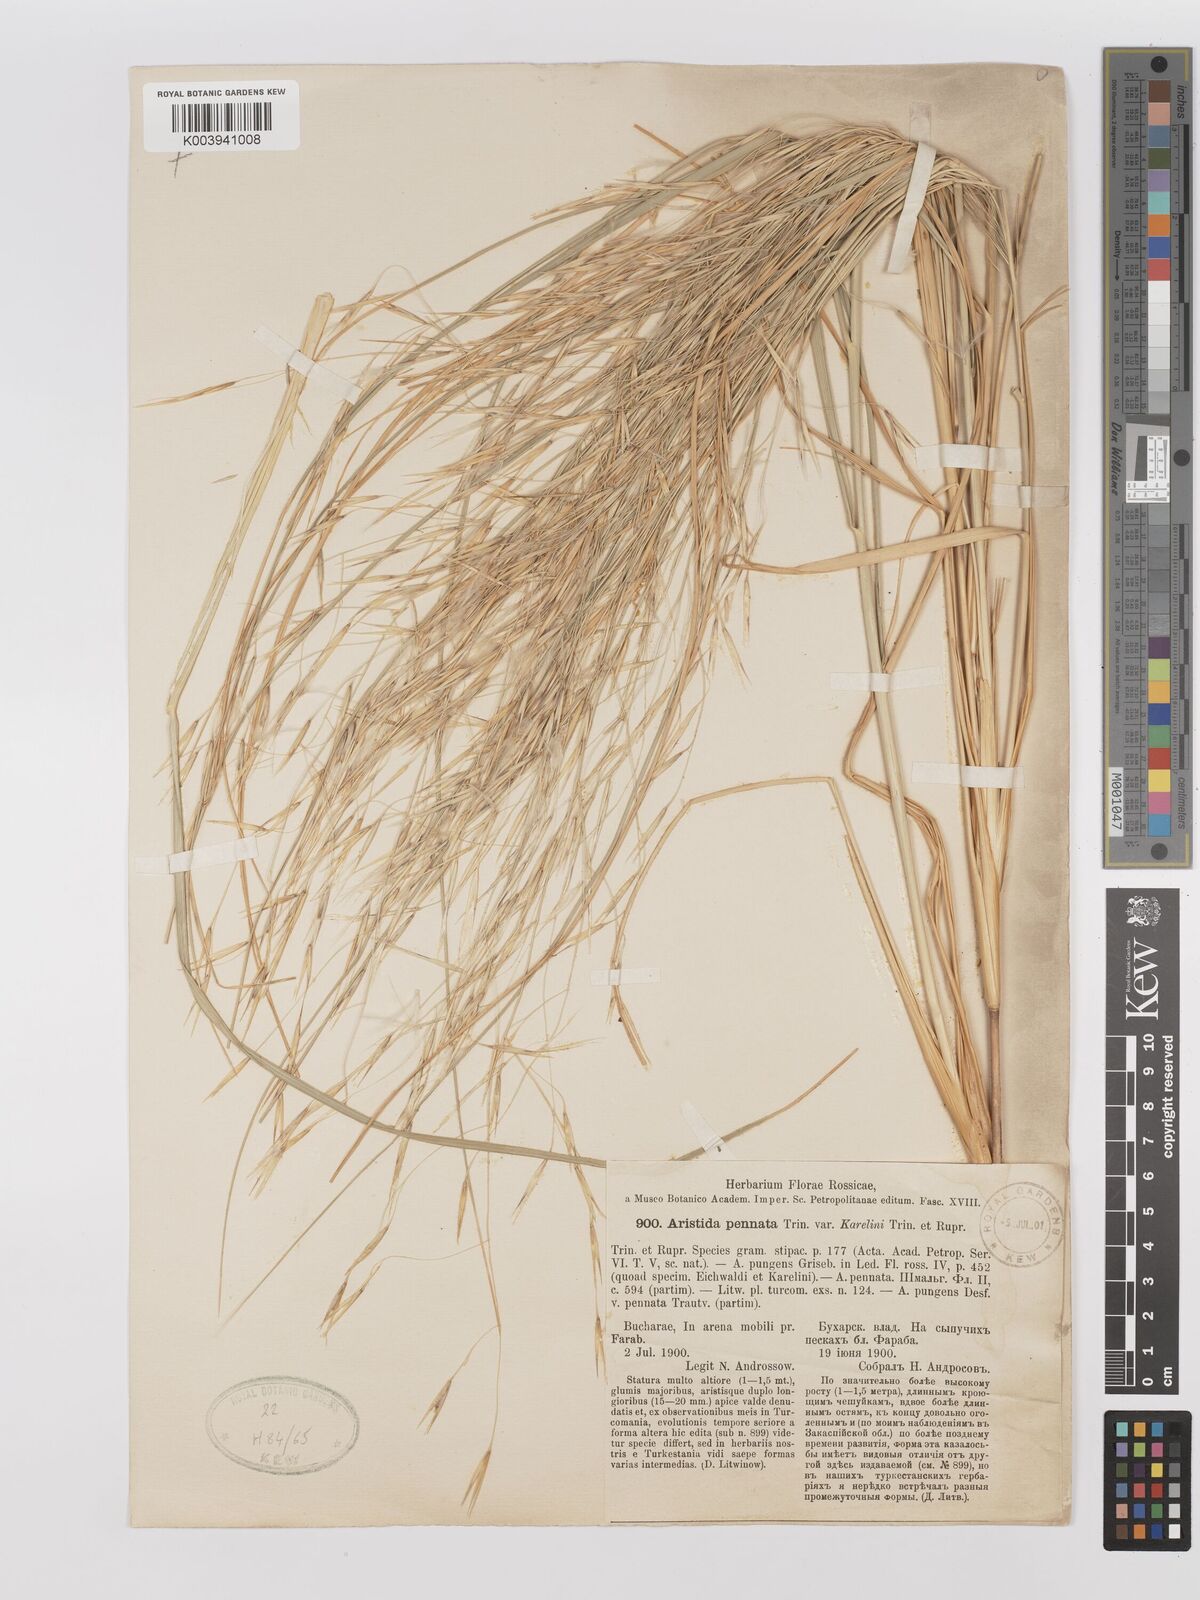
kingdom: Plantae
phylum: Tracheophyta
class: Liliopsida
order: Poales
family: Poaceae
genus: Stipagrostis
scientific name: Stipagrostis karelinii
